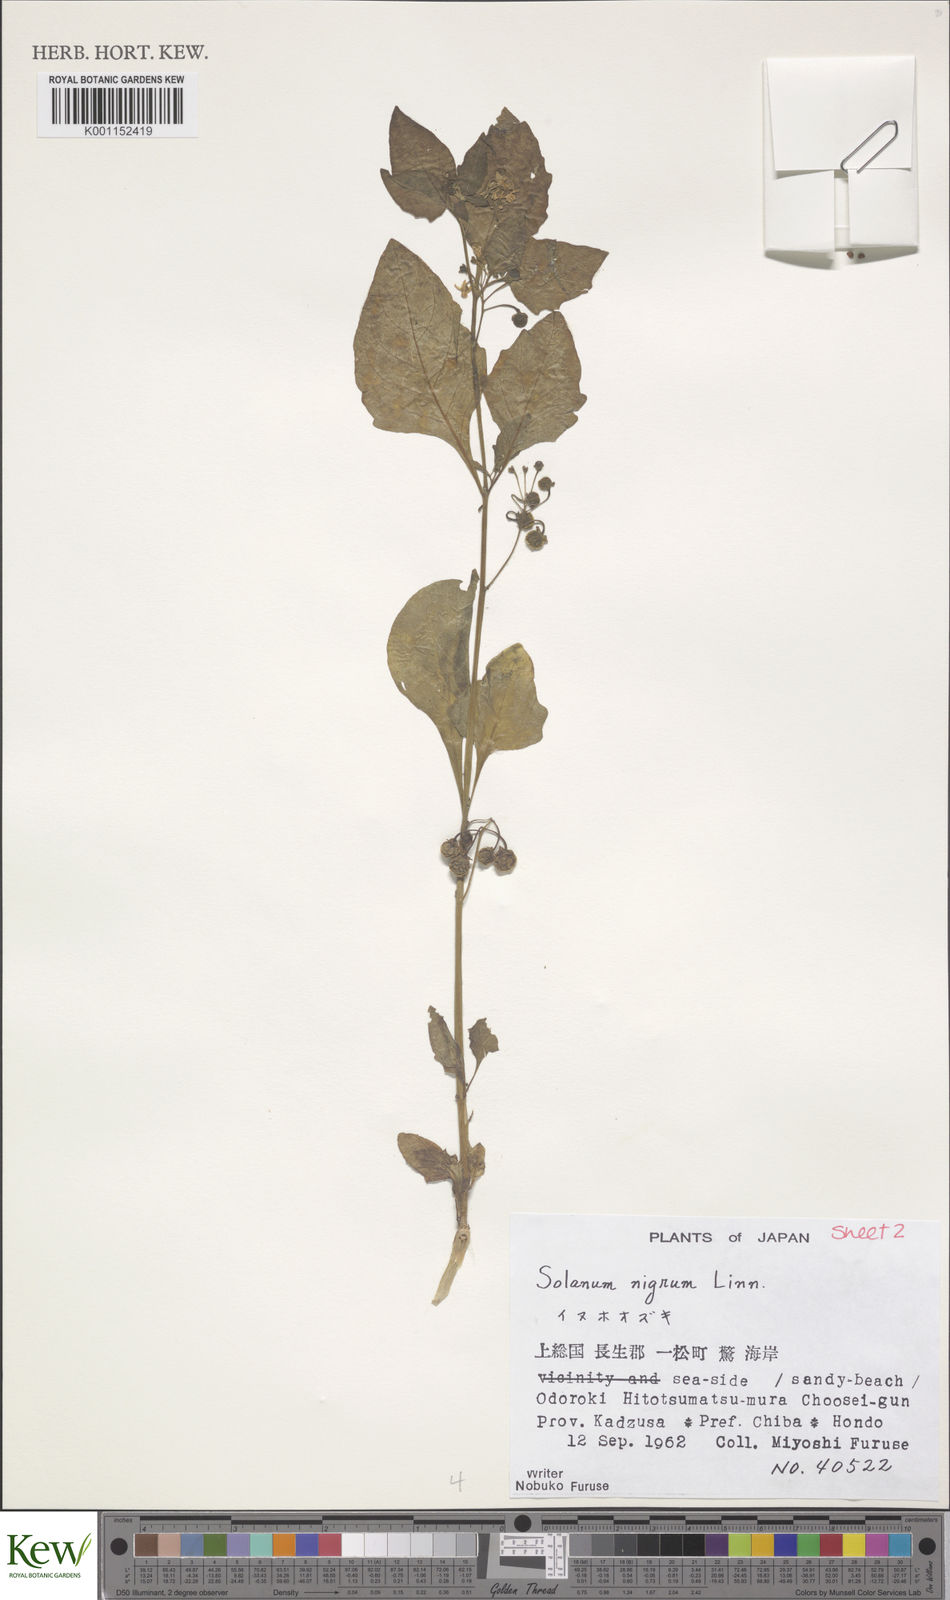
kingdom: Plantae
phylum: Tracheophyta
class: Magnoliopsida
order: Solanales
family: Solanaceae
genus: Solanum
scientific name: Solanum nigrum
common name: Black nightshade
